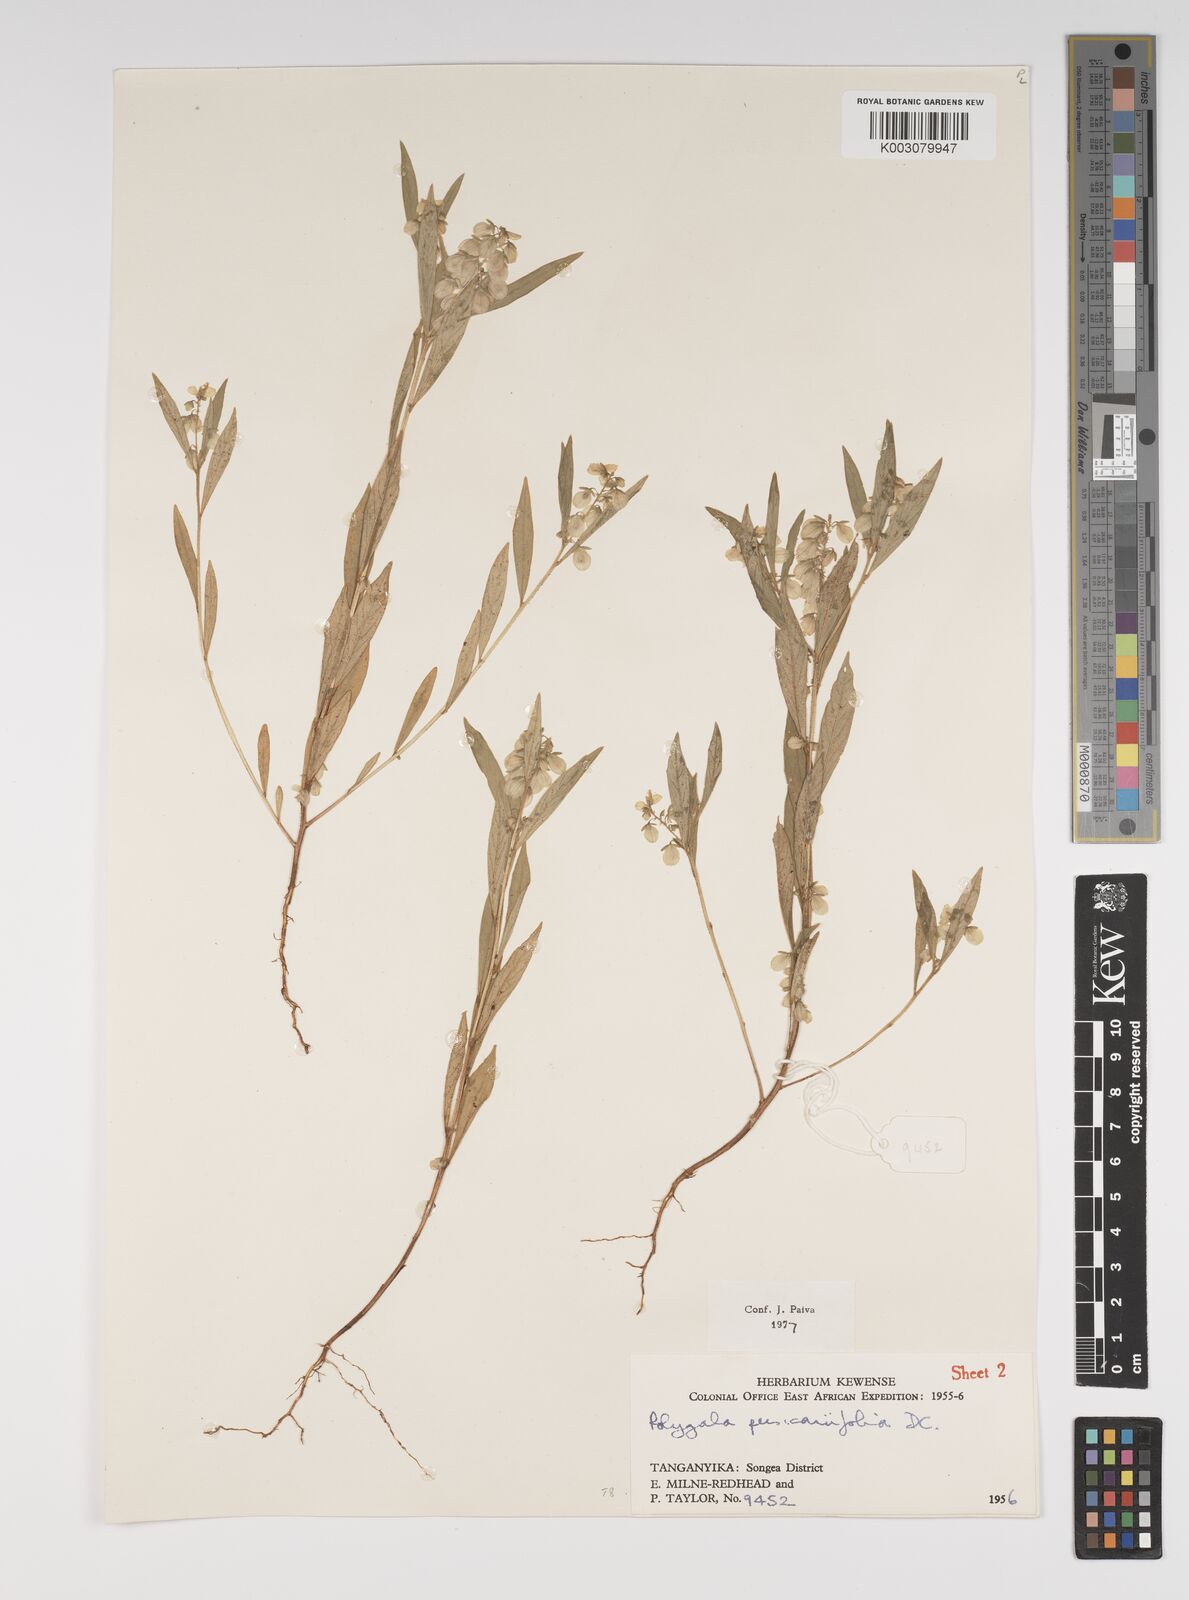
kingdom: Plantae
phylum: Tracheophyta
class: Magnoliopsida
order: Fabales
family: Polygalaceae
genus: Polygala
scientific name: Polygala persicariifolia
